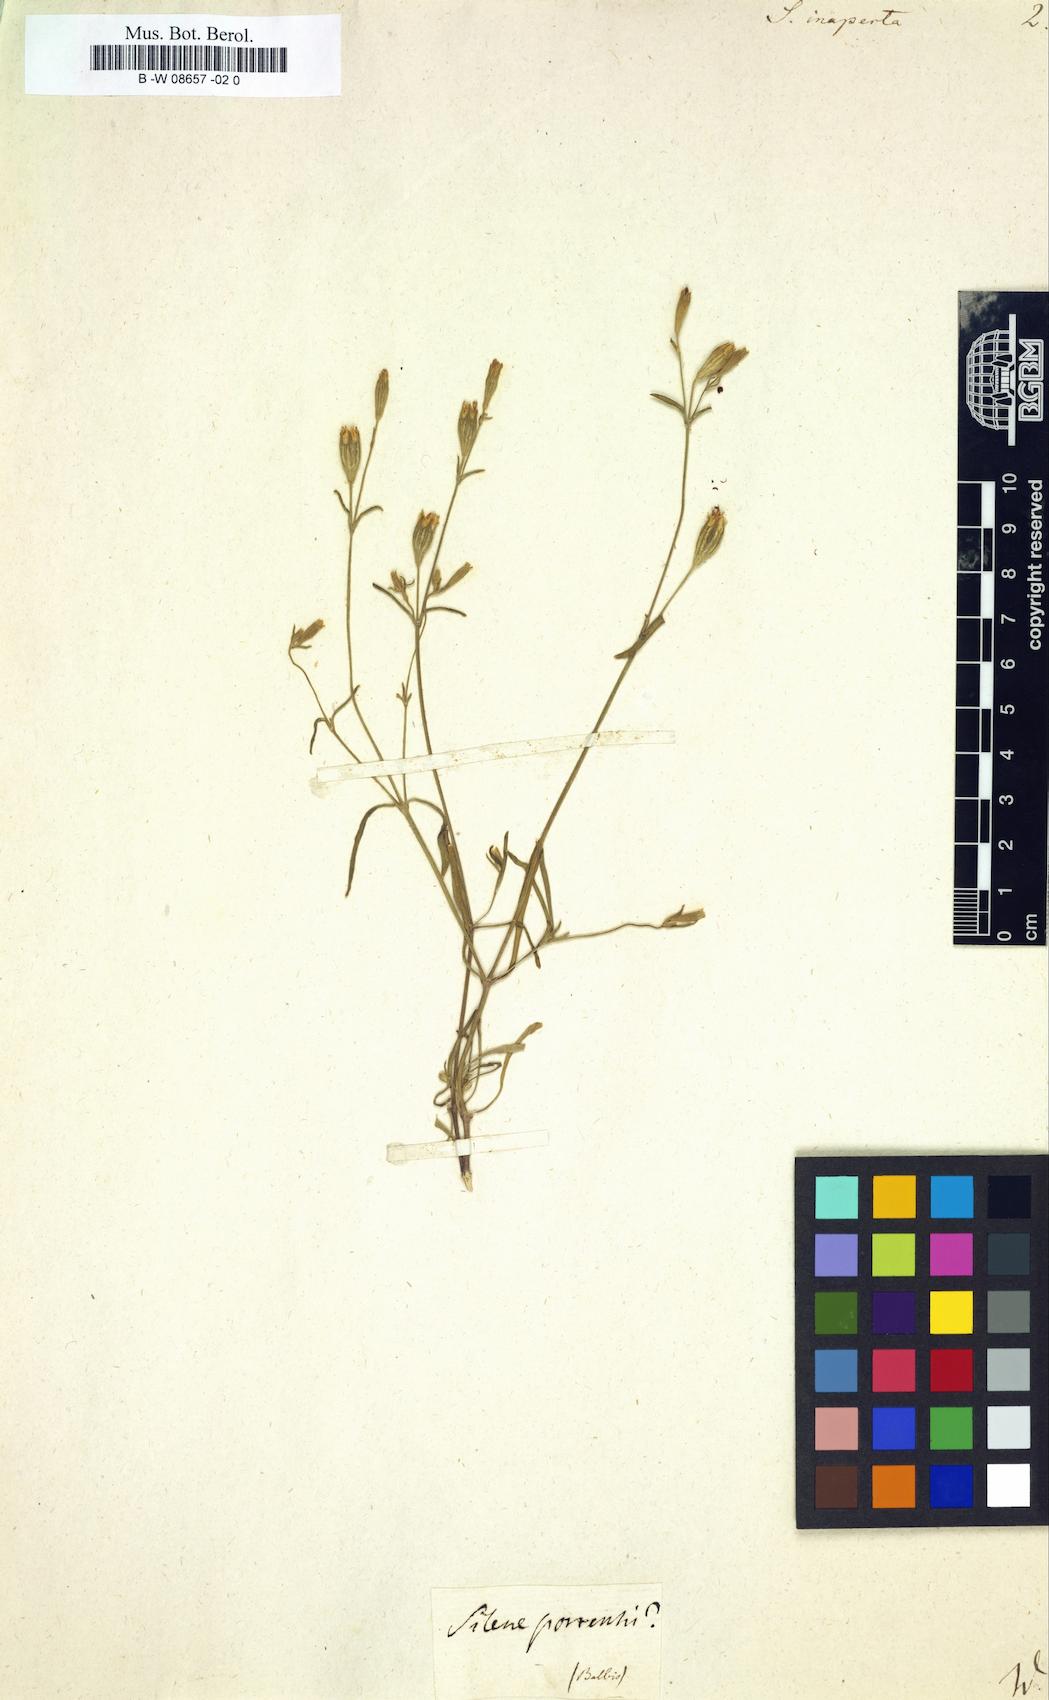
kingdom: Plantae
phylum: Tracheophyta
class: Magnoliopsida
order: Caryophyllales
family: Caryophyllaceae
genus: Silene
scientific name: Silene inaperta
